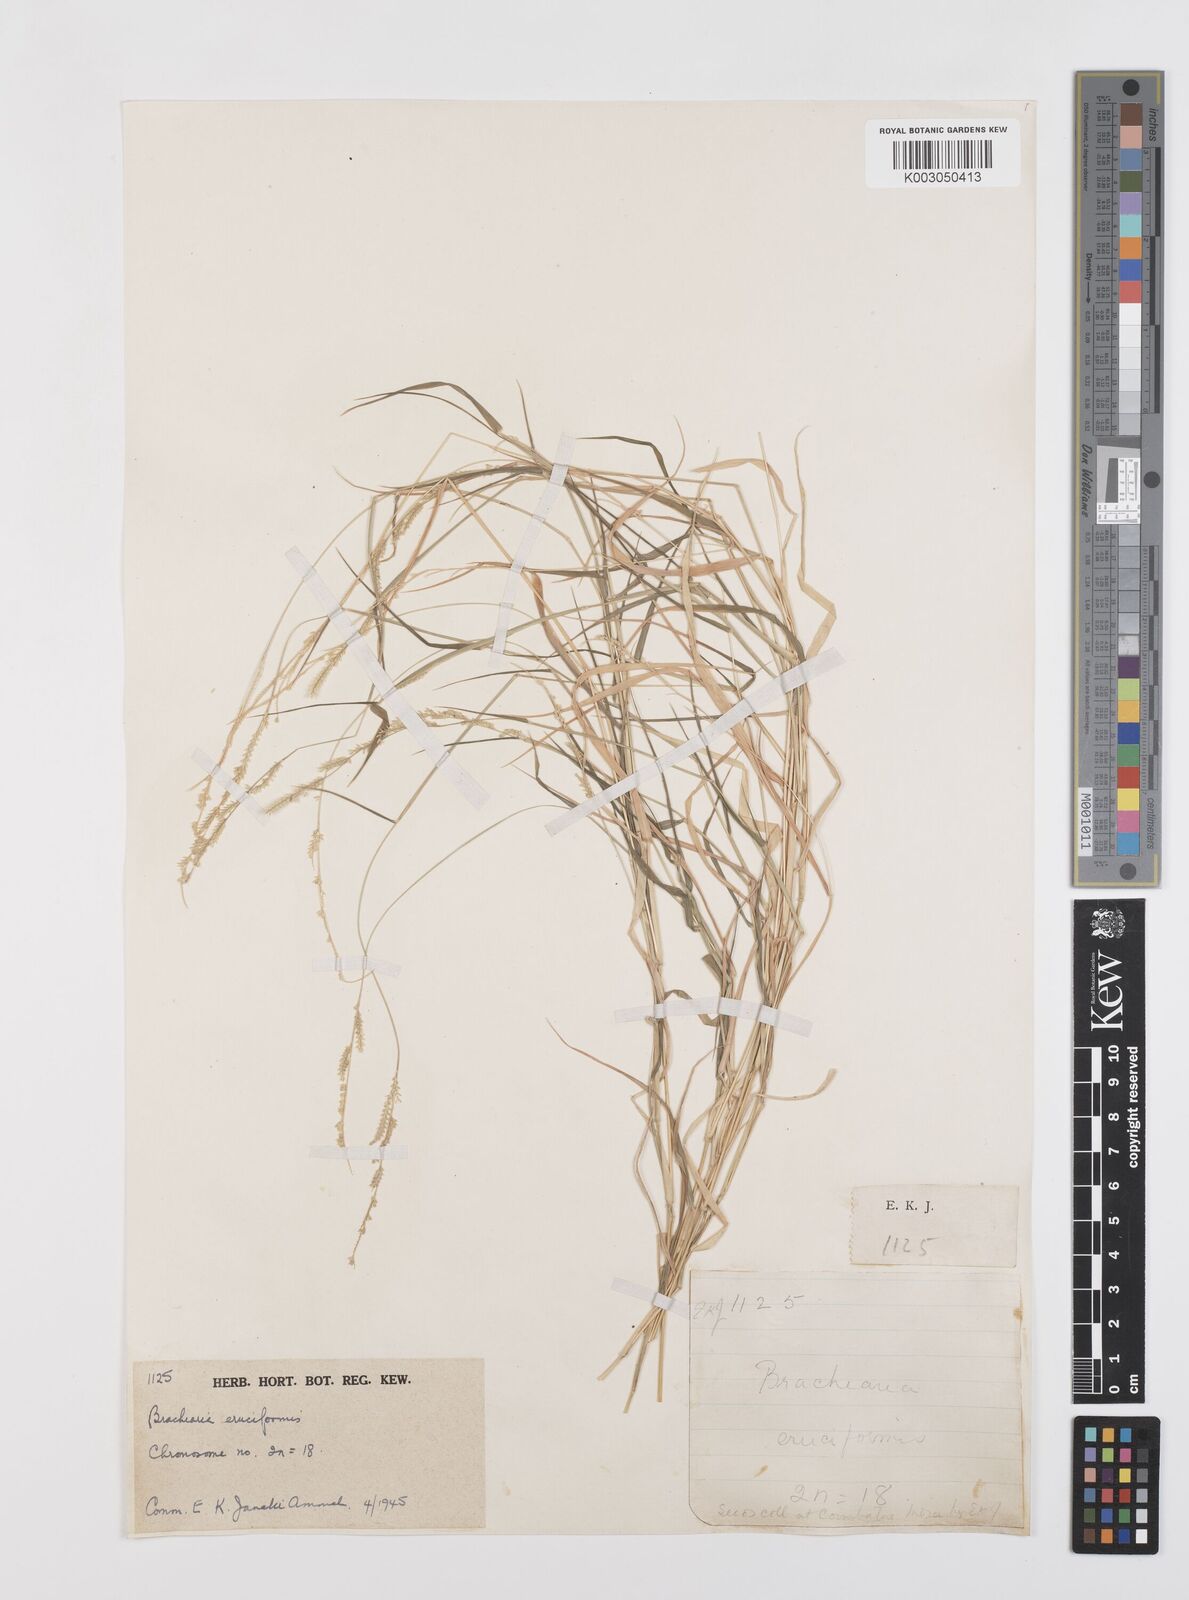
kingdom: Plantae
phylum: Tracheophyta
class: Liliopsida
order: Poales
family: Poaceae
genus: Moorochloa
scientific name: Moorochloa eruciformis
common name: Sweet signalgrass
